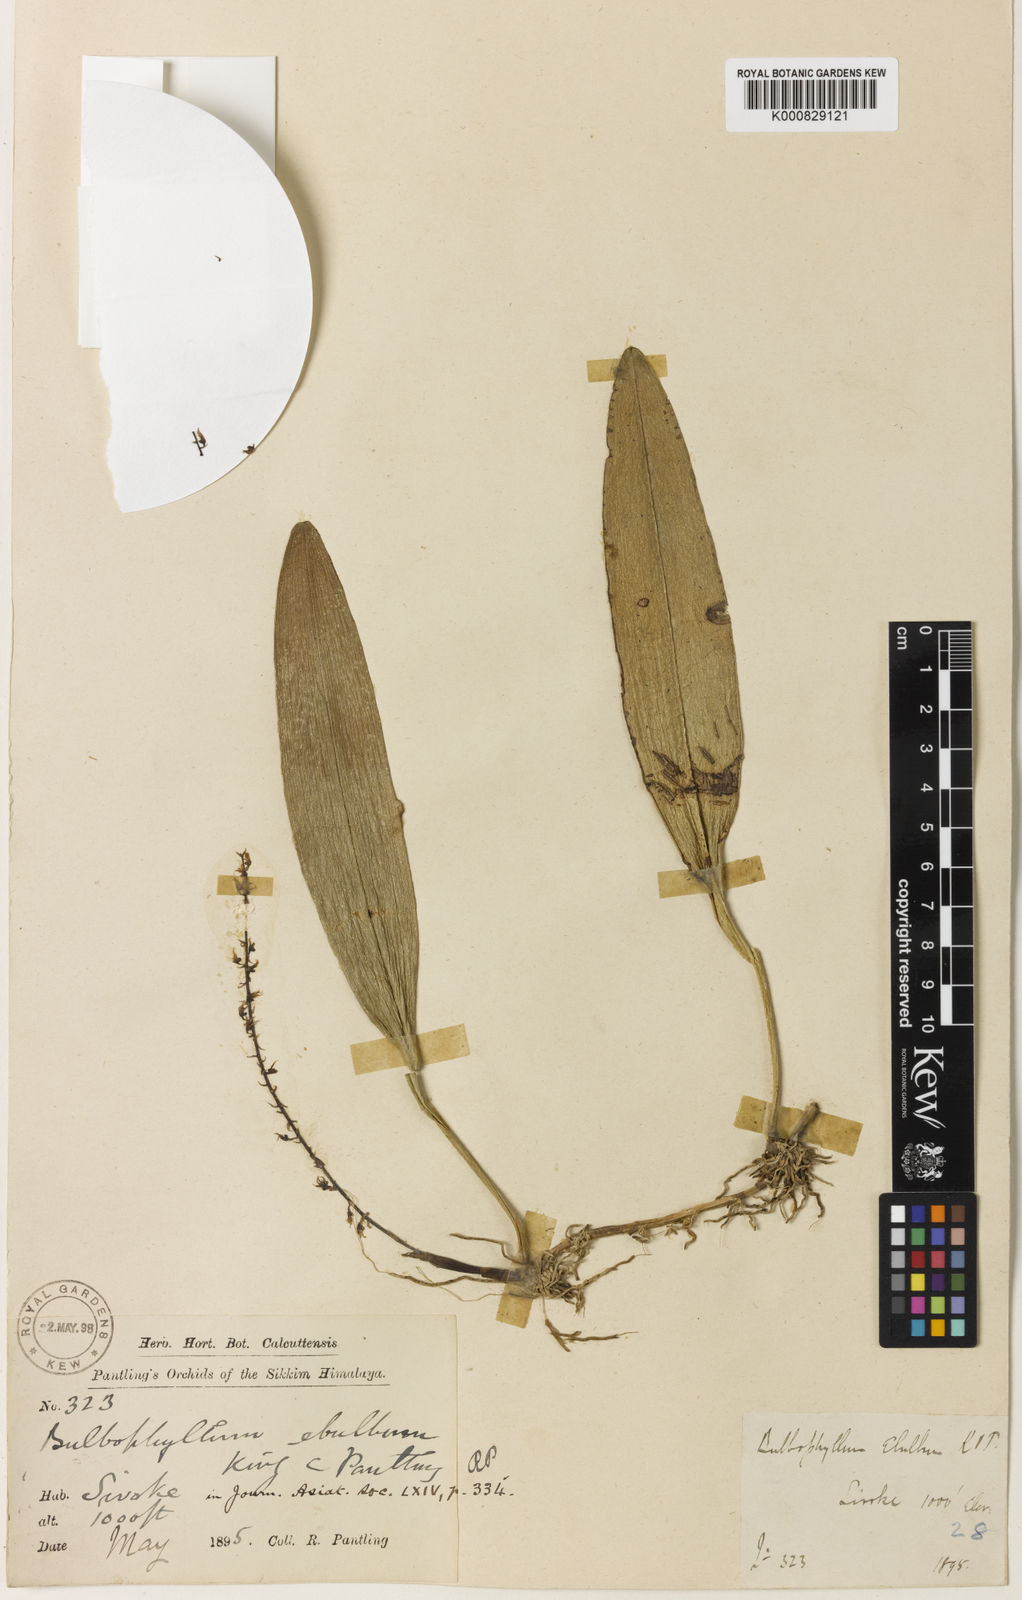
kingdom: Plantae
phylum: Tracheophyta
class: Liliopsida
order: Asparagales
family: Orchidaceae
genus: Bulbophyllum
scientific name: Bulbophyllum apodum
